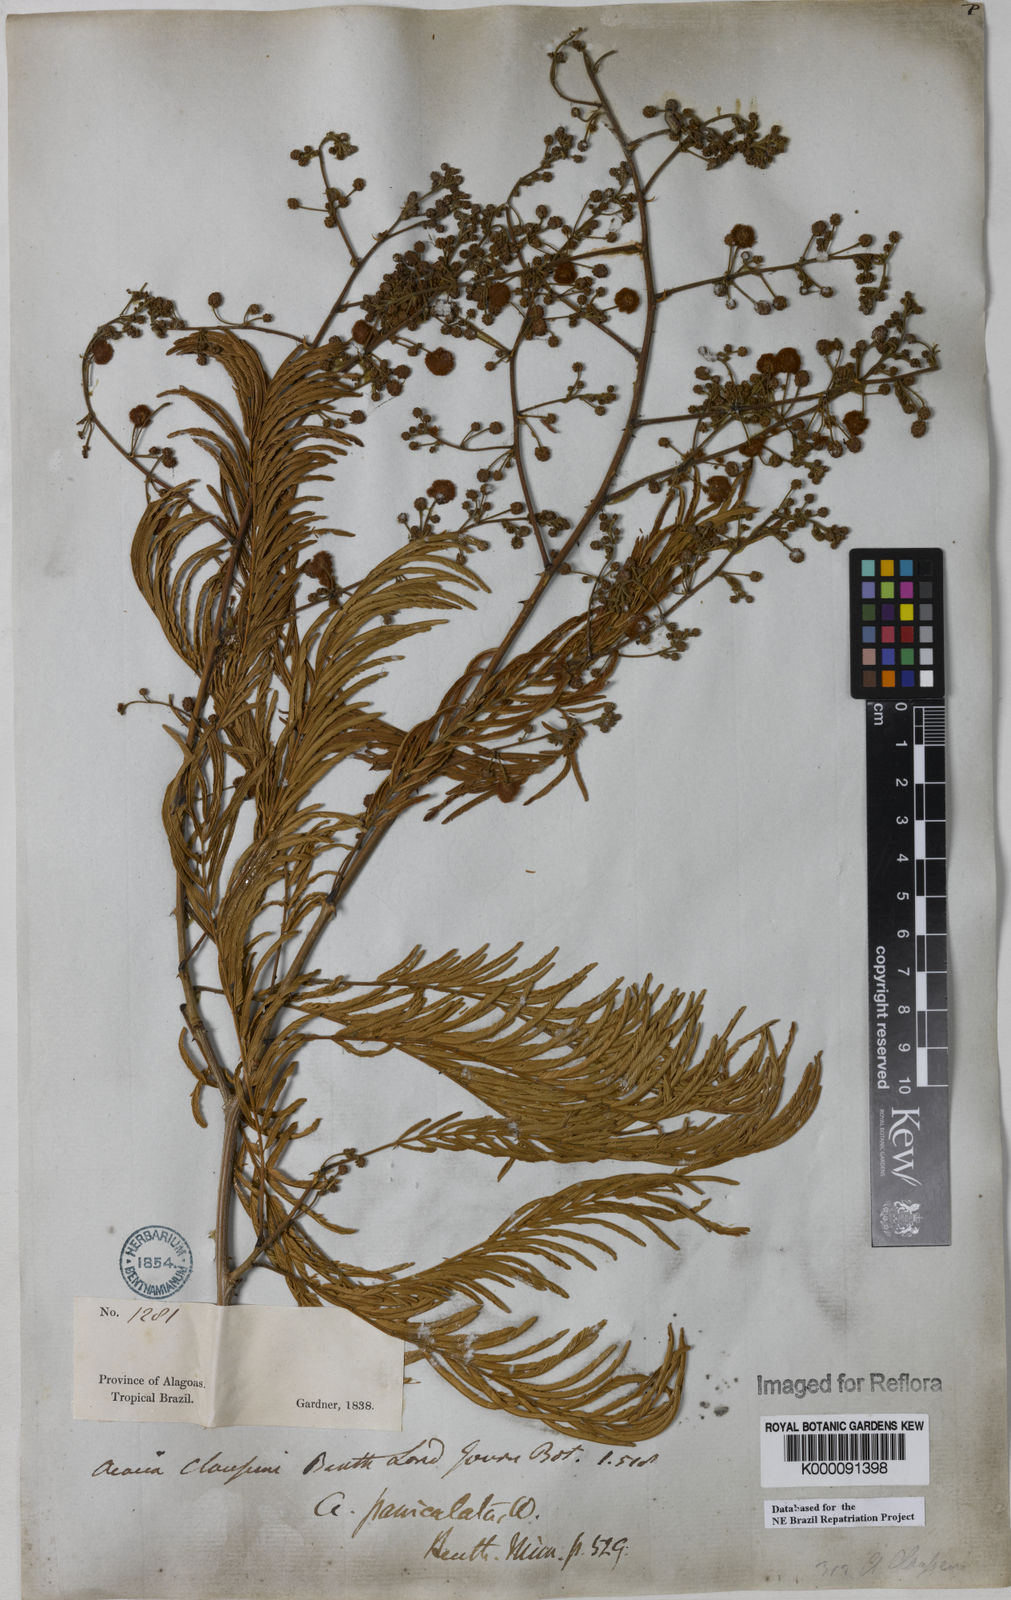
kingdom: Plantae
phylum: Tracheophyta
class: Magnoliopsida
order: Fabales
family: Fabaceae
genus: Senegalia
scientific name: Senegalia tenuifolia
